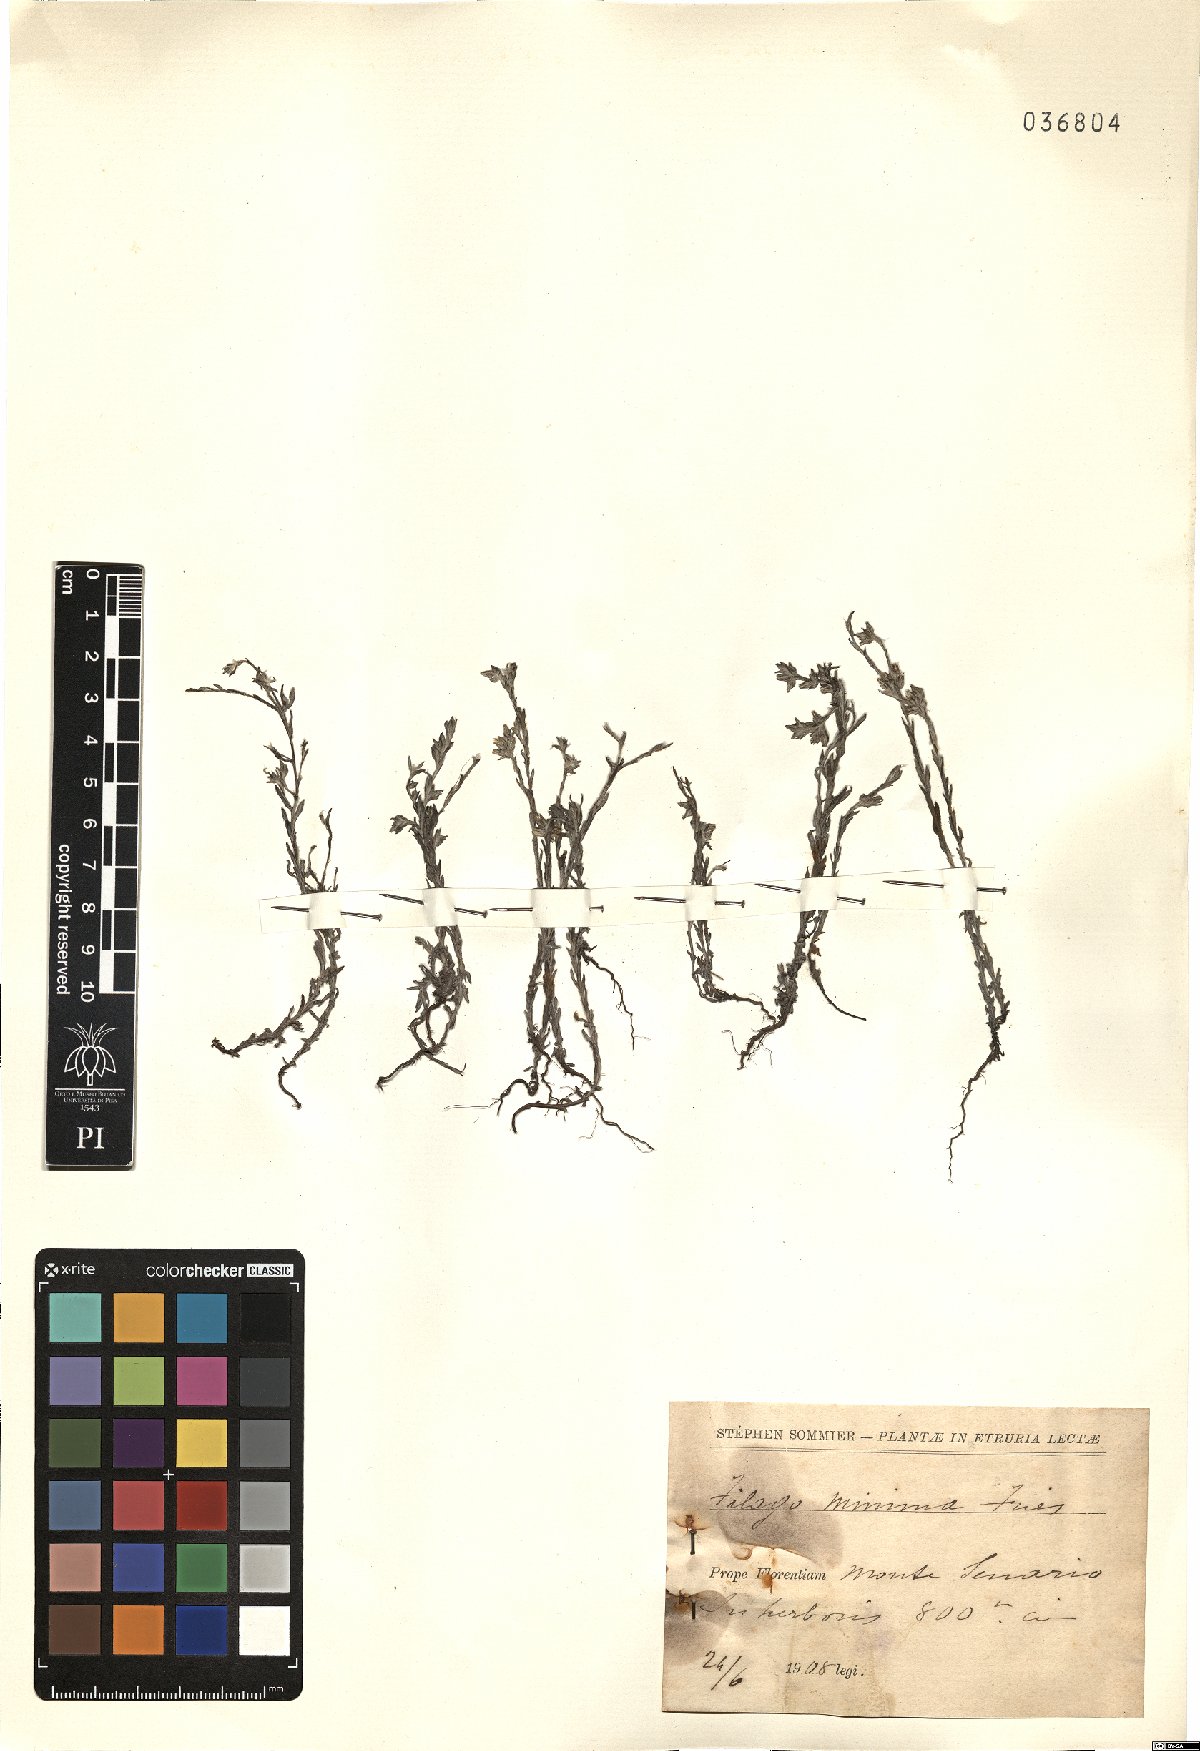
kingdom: Plantae
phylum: Tracheophyta
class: Magnoliopsida
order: Asterales
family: Asteraceae
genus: Logfia
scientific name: Logfia minima
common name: Little cottonrose
